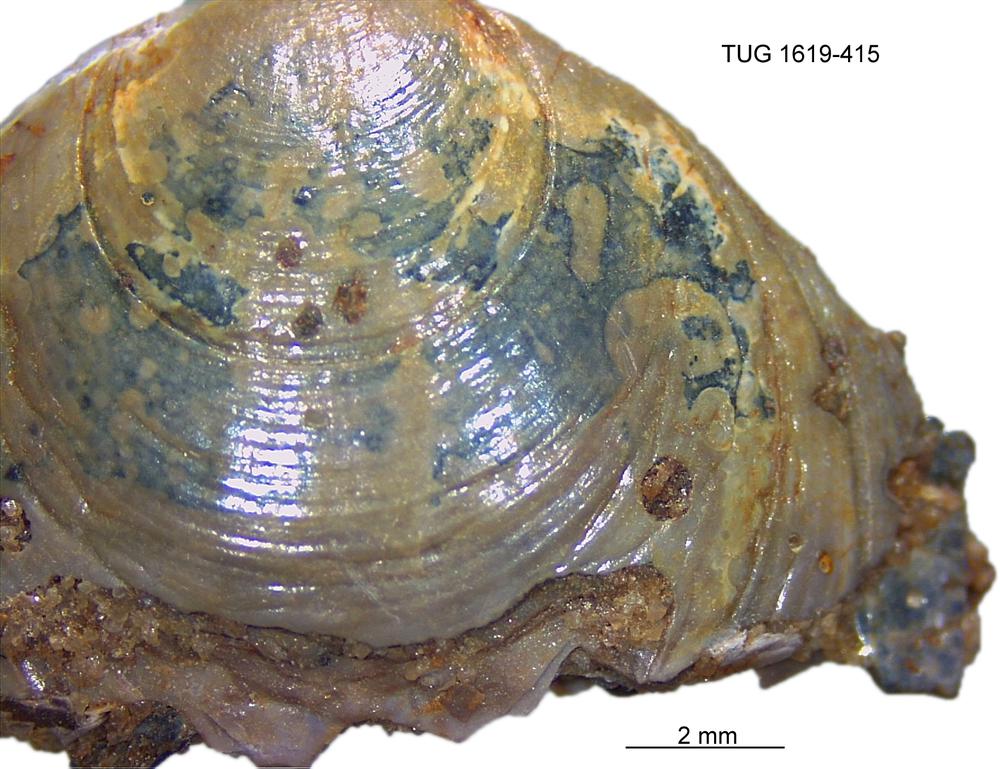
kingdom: Animalia
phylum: Porifera
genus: Ungula
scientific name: Ungula
